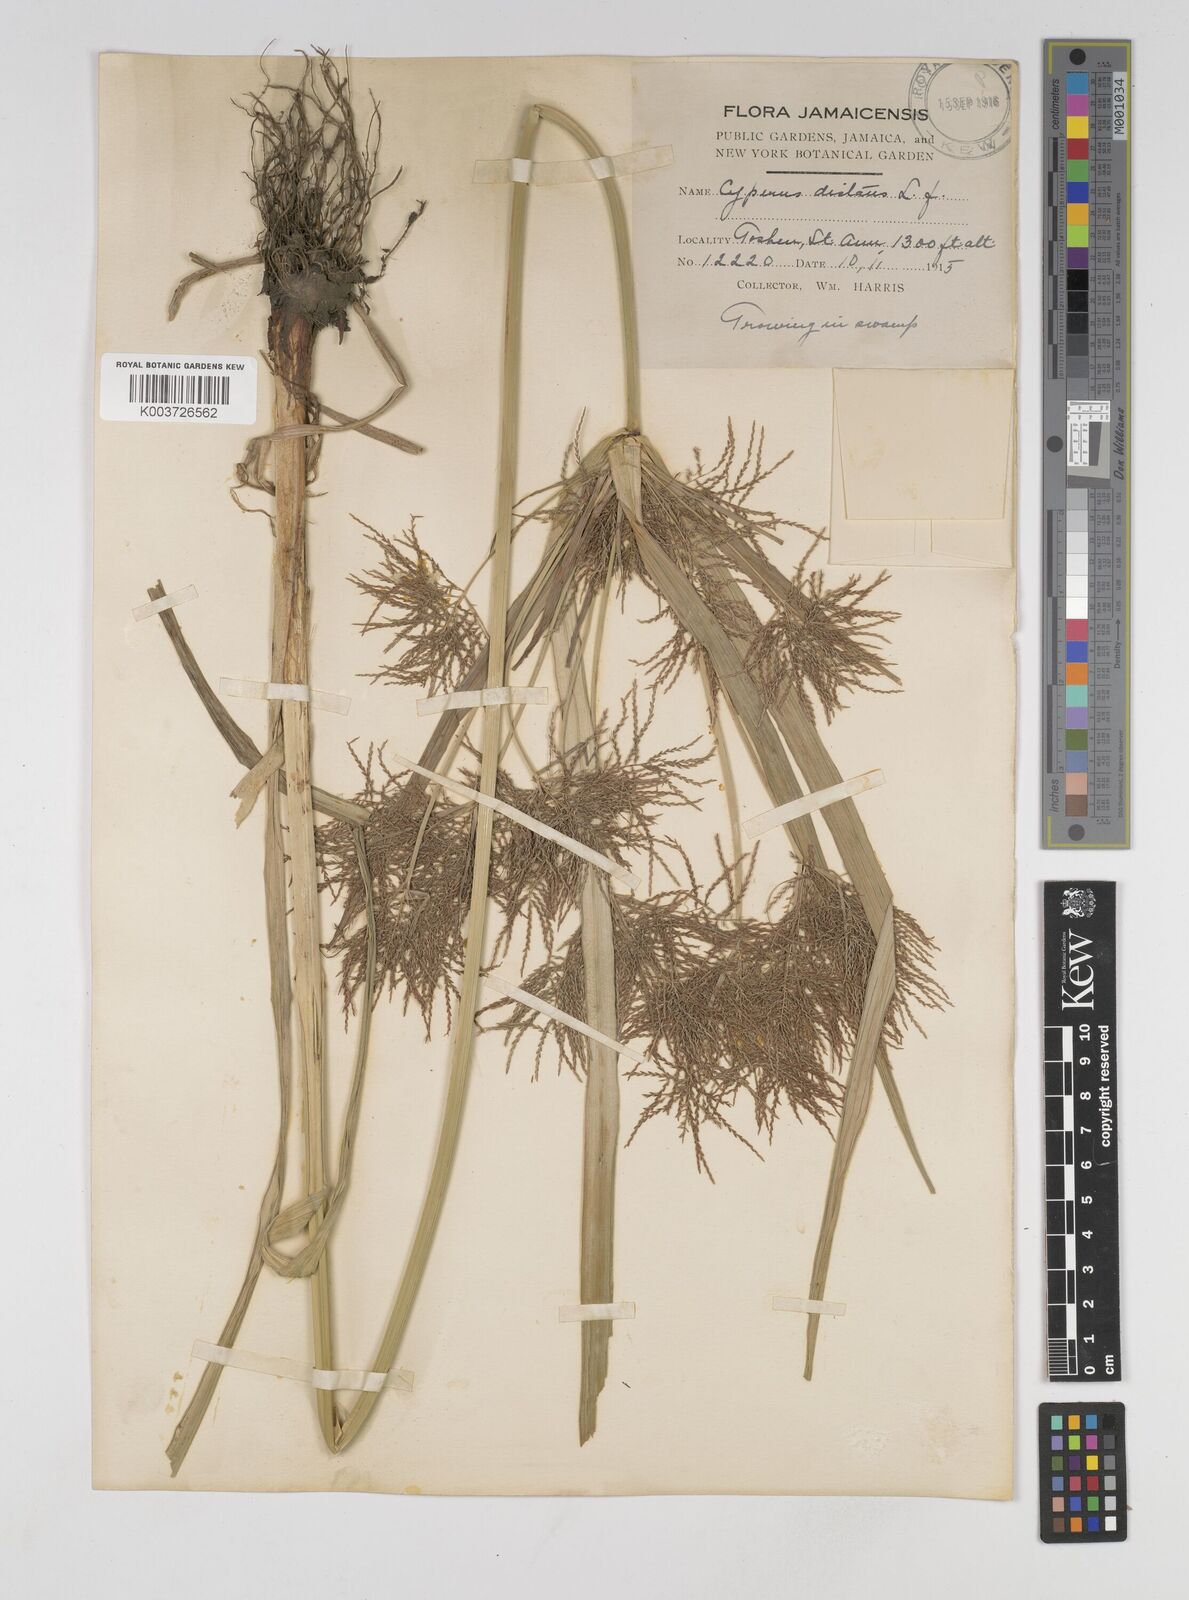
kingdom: Plantae
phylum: Tracheophyta
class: Liliopsida
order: Poales
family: Cyperaceae
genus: Cyperus
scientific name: Cyperus distans
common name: Slender cyperus
